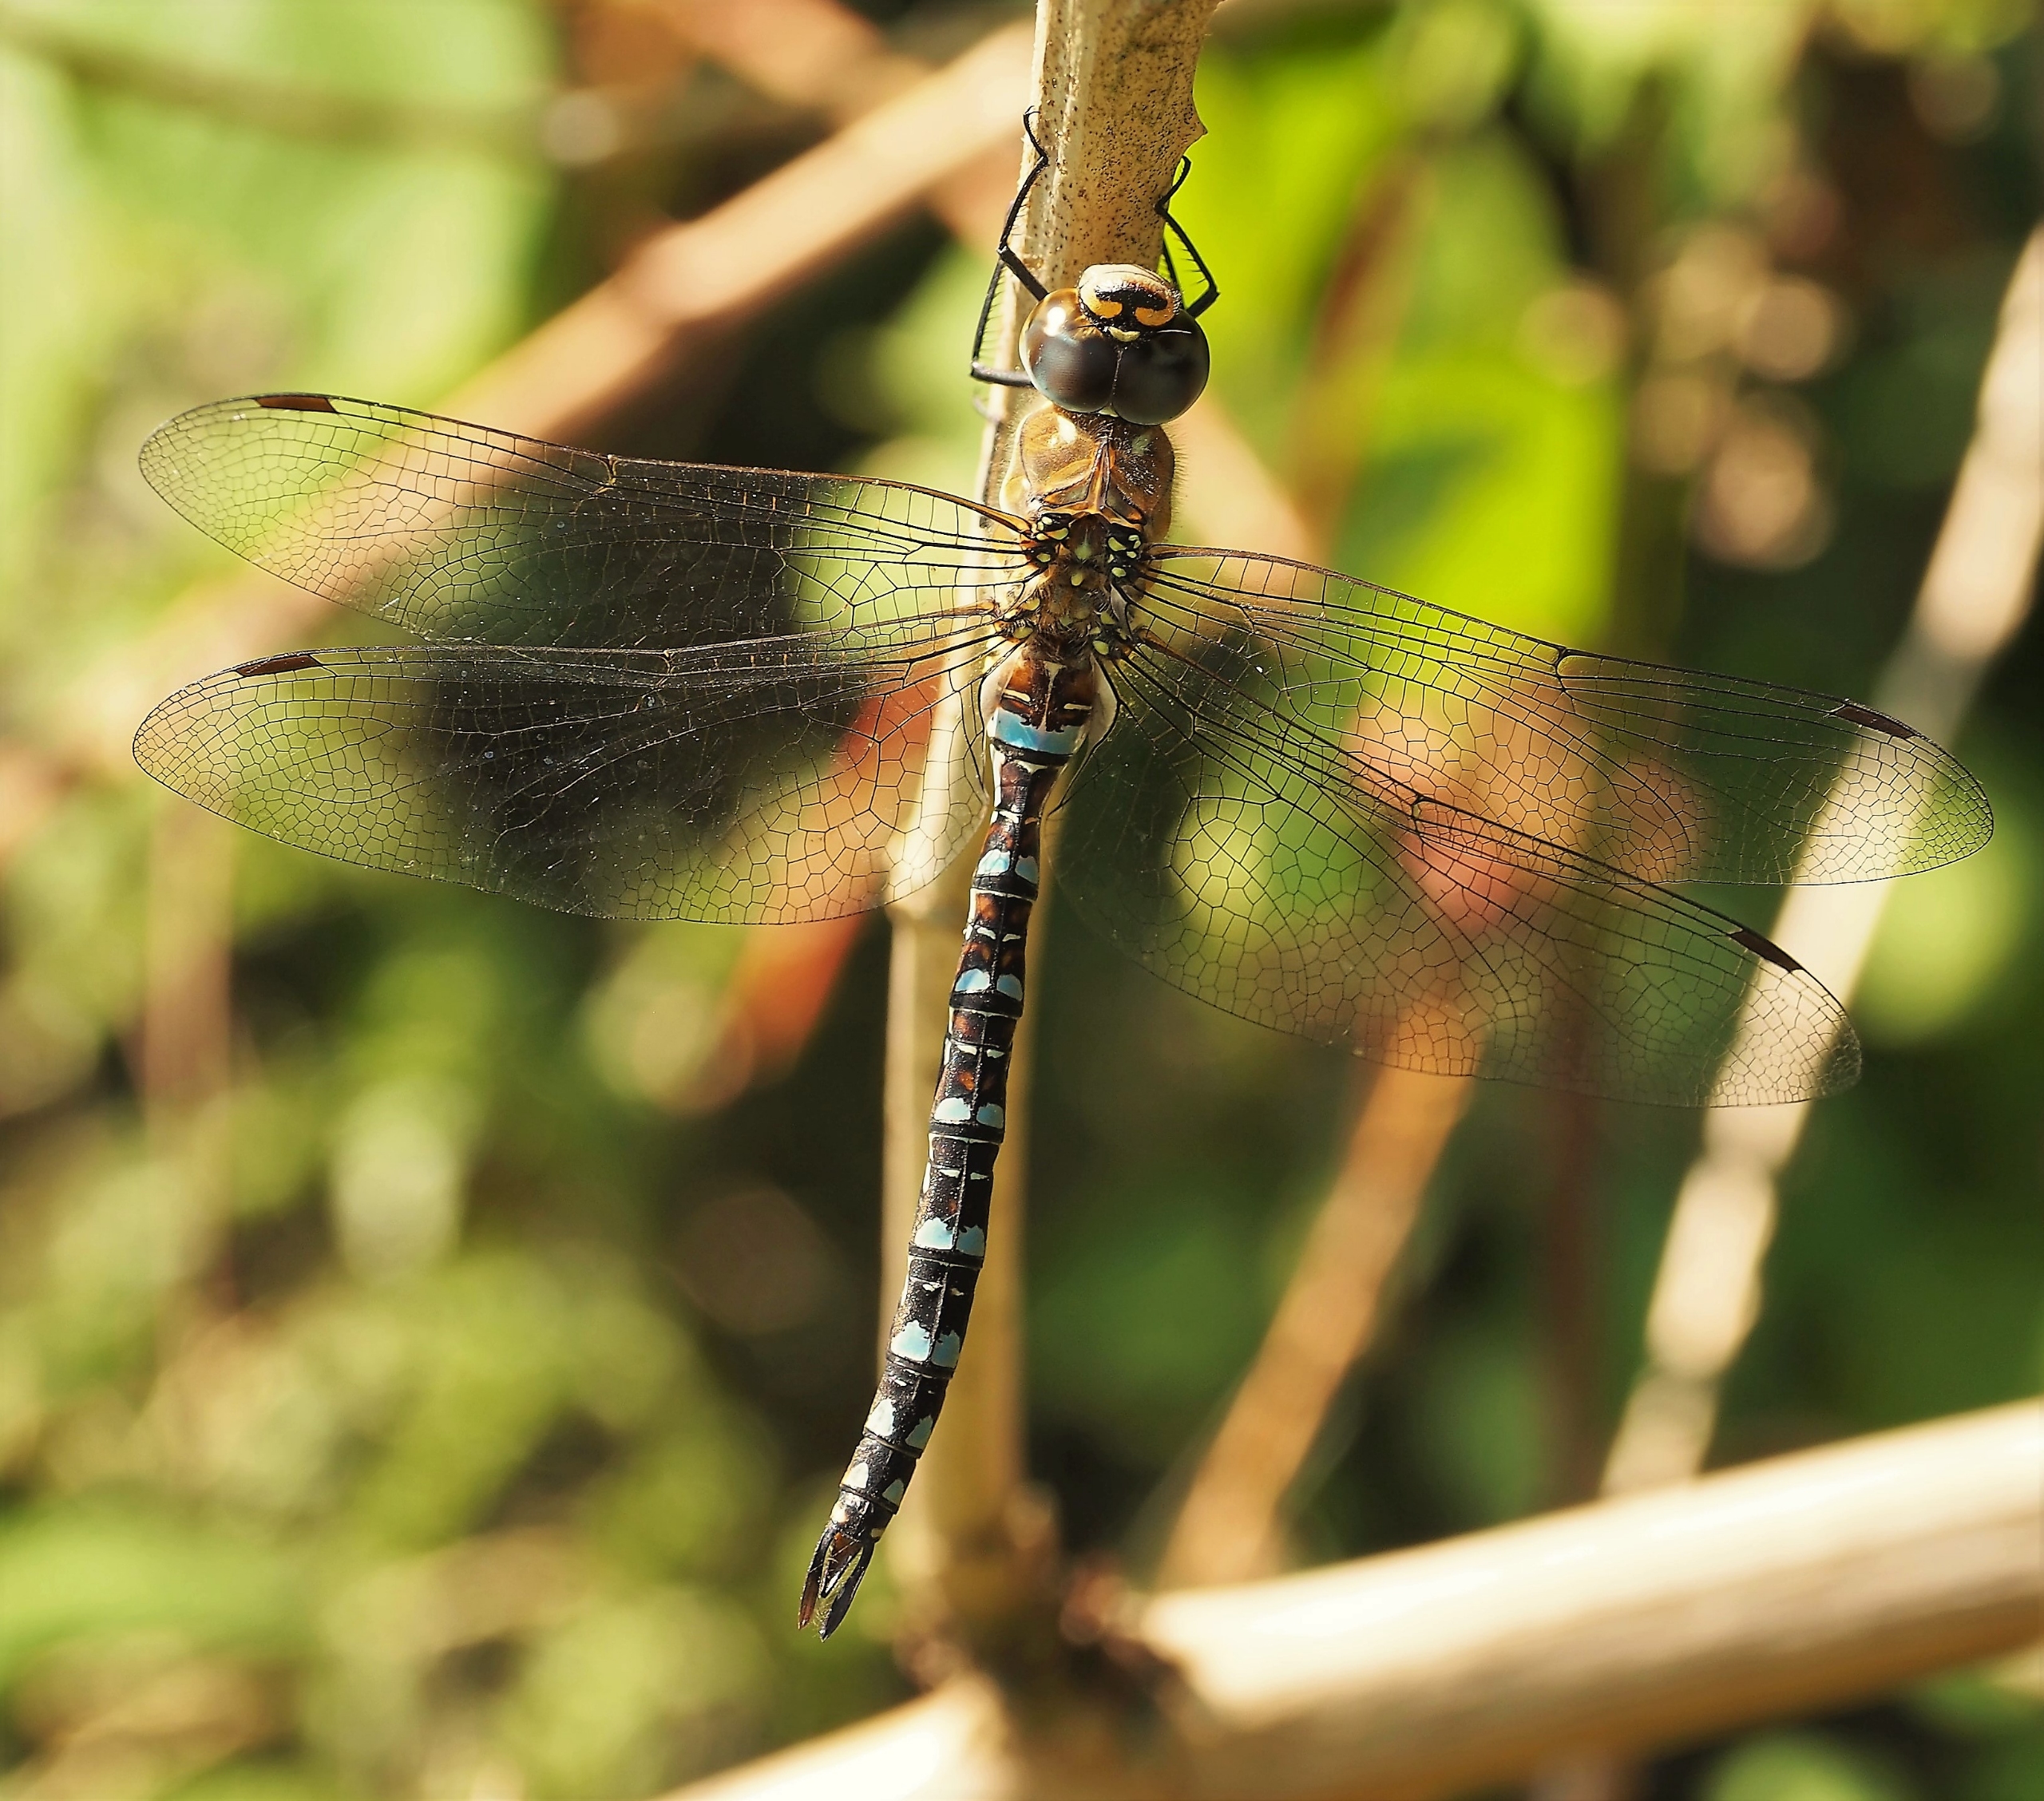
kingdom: Animalia
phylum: Arthropoda
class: Insecta
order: Odonata
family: Aeshnidae
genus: Aeshna
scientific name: Aeshna mixta
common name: Efterårs-mosaikguldsmed
